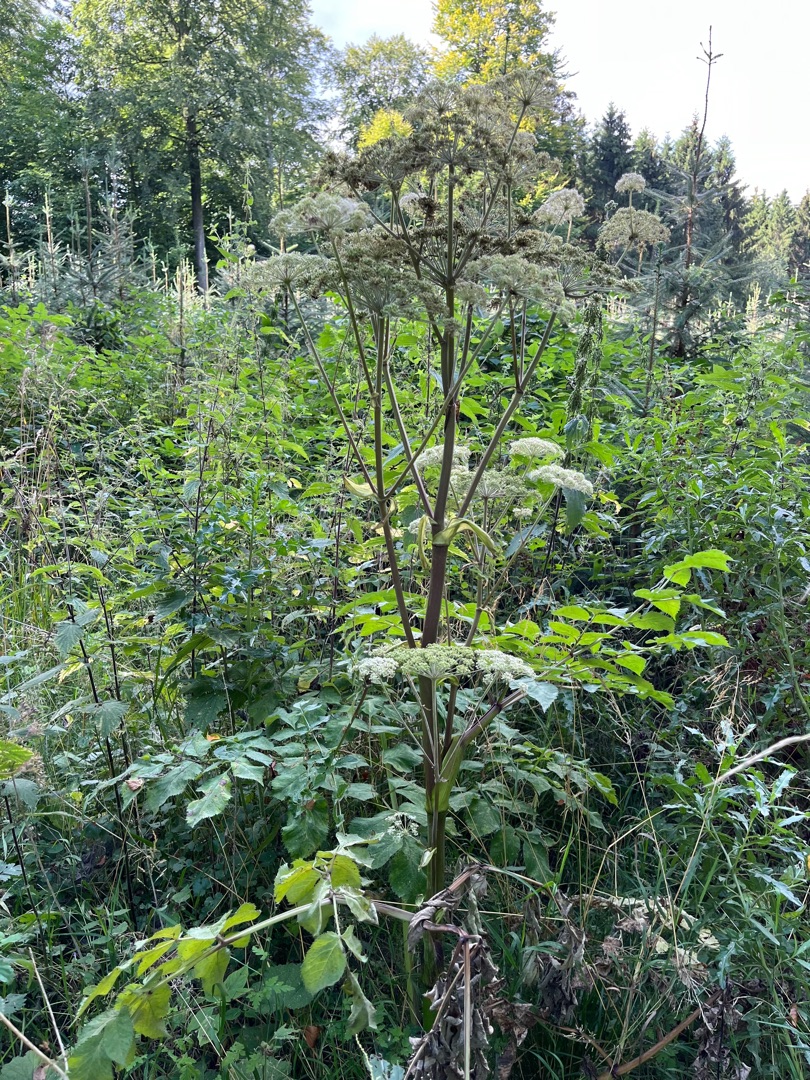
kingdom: Plantae
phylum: Tracheophyta
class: Magnoliopsida
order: Apiales
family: Apiaceae
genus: Angelica
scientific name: Angelica sylvestris
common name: Angelik
